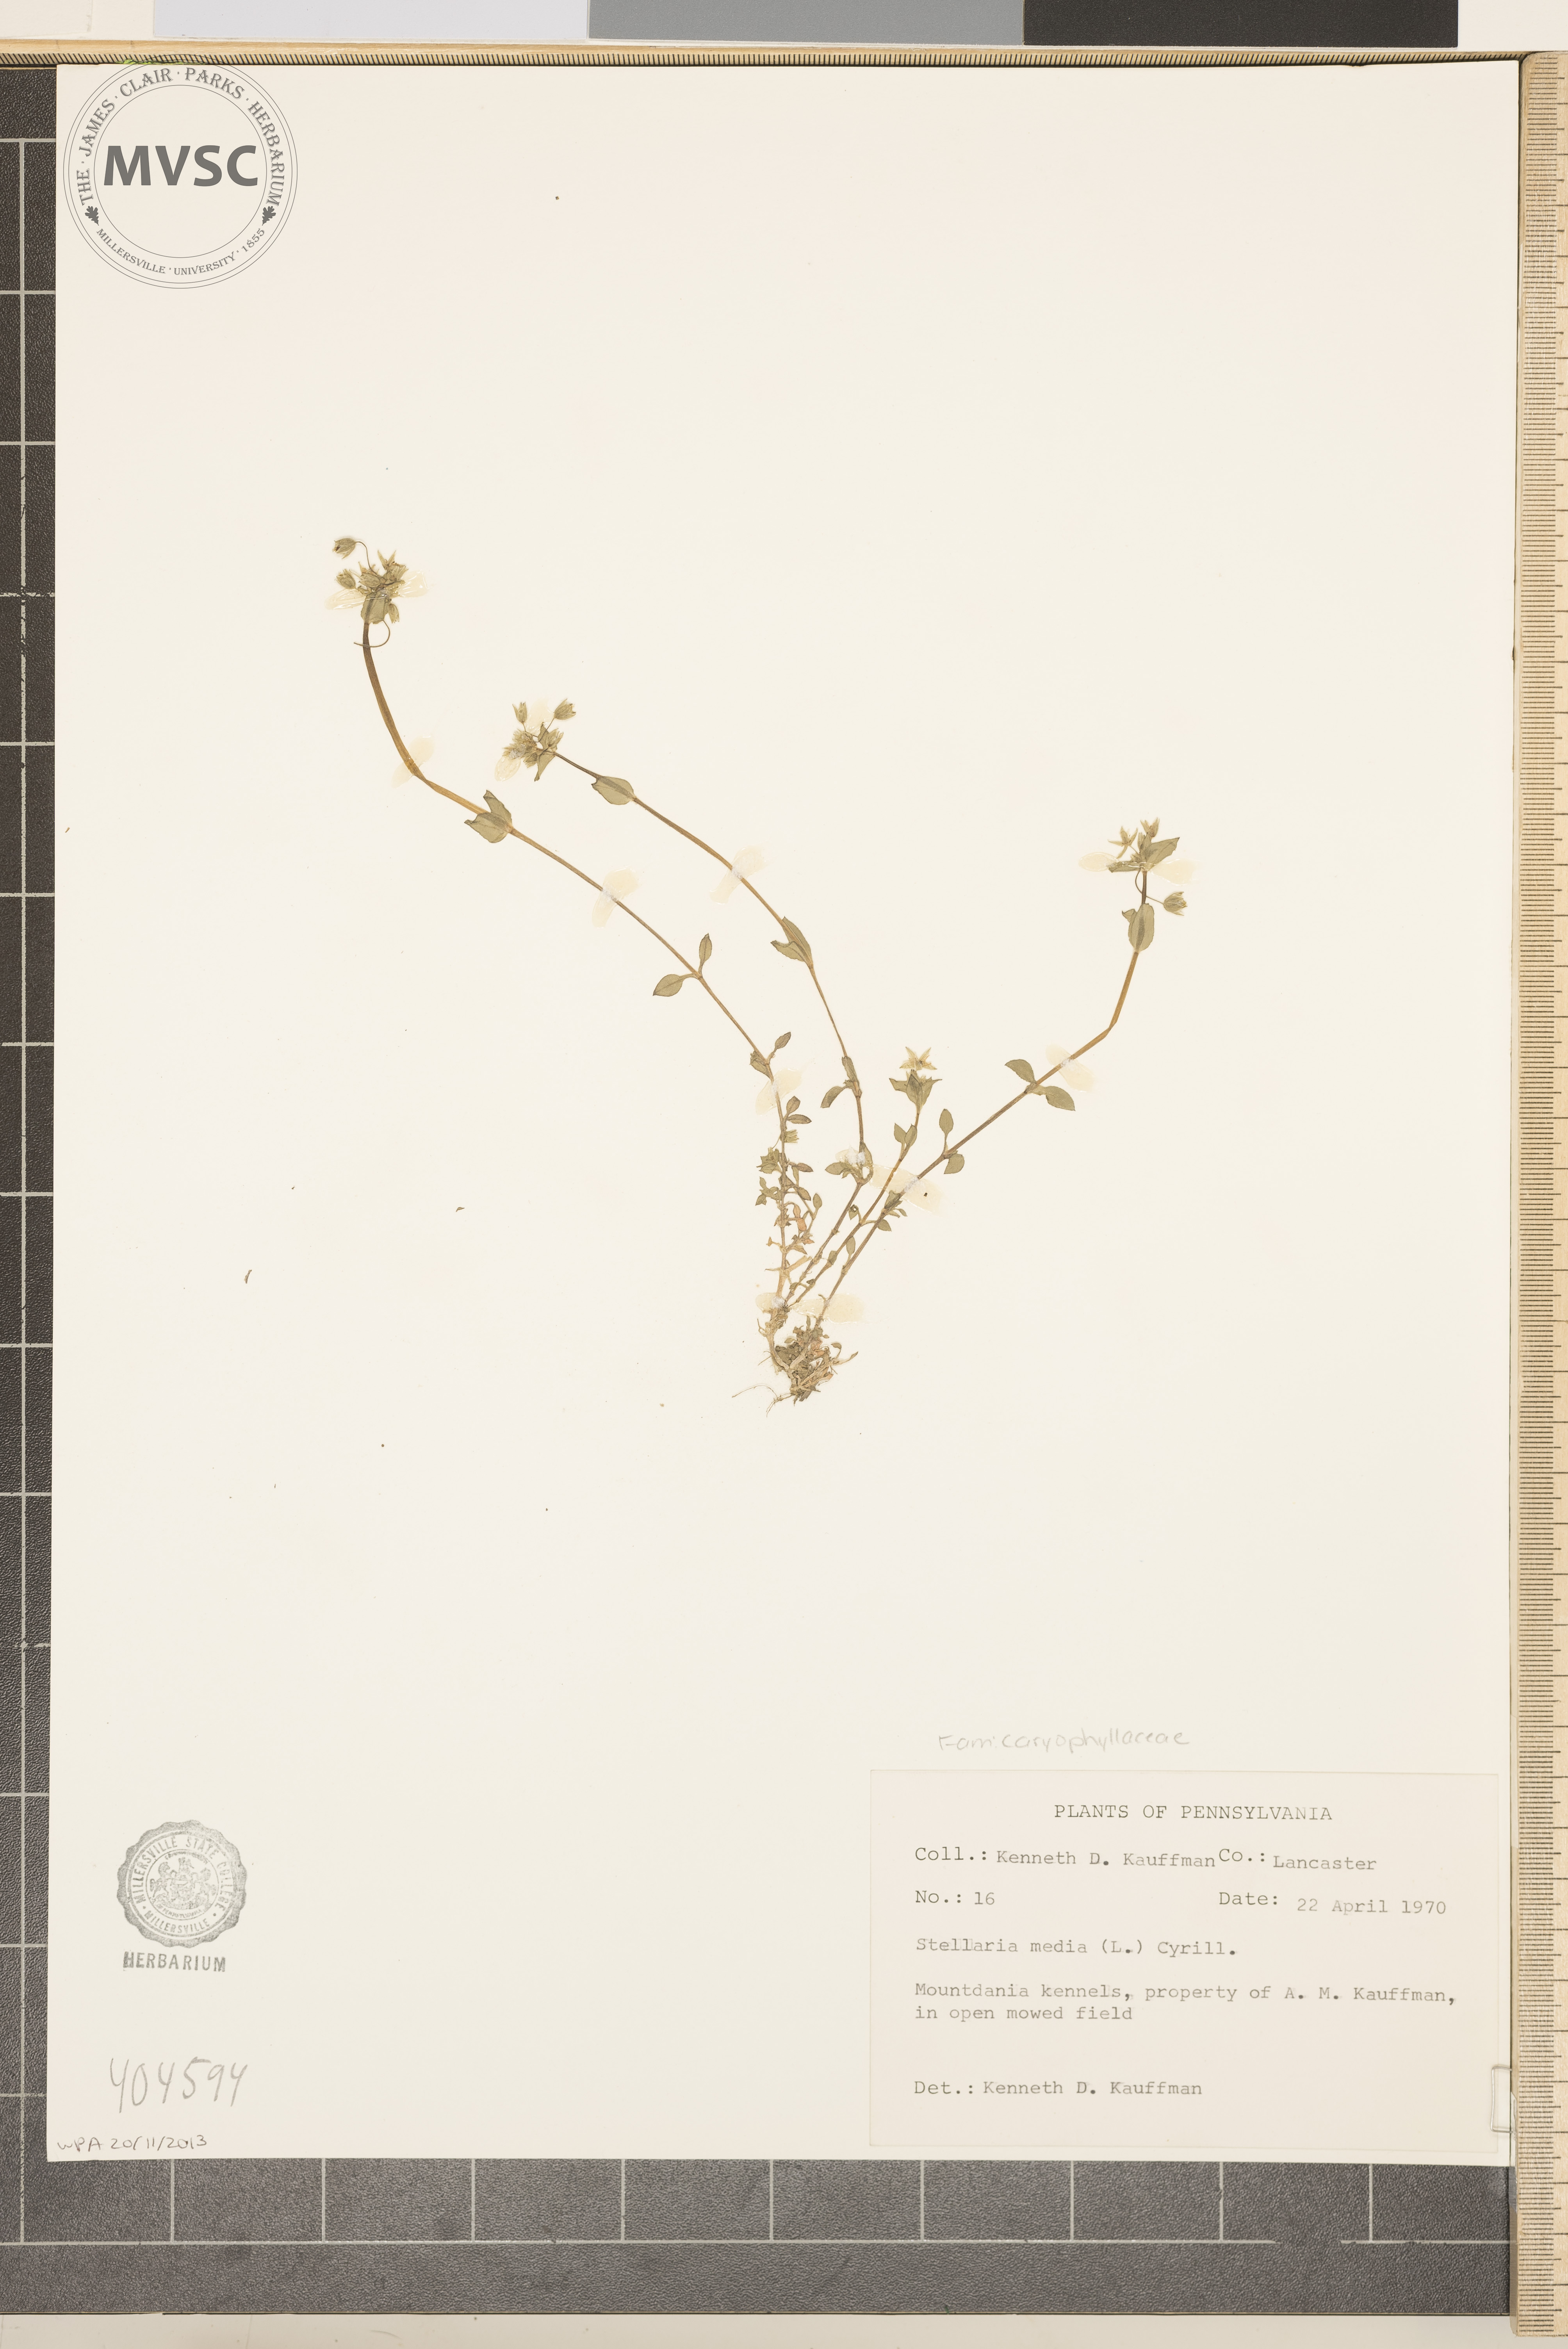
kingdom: Plantae
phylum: Tracheophyta
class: Magnoliopsida
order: Caryophyllales
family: Caryophyllaceae
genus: Stellaria
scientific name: Stellaria media
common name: Common chickweed
